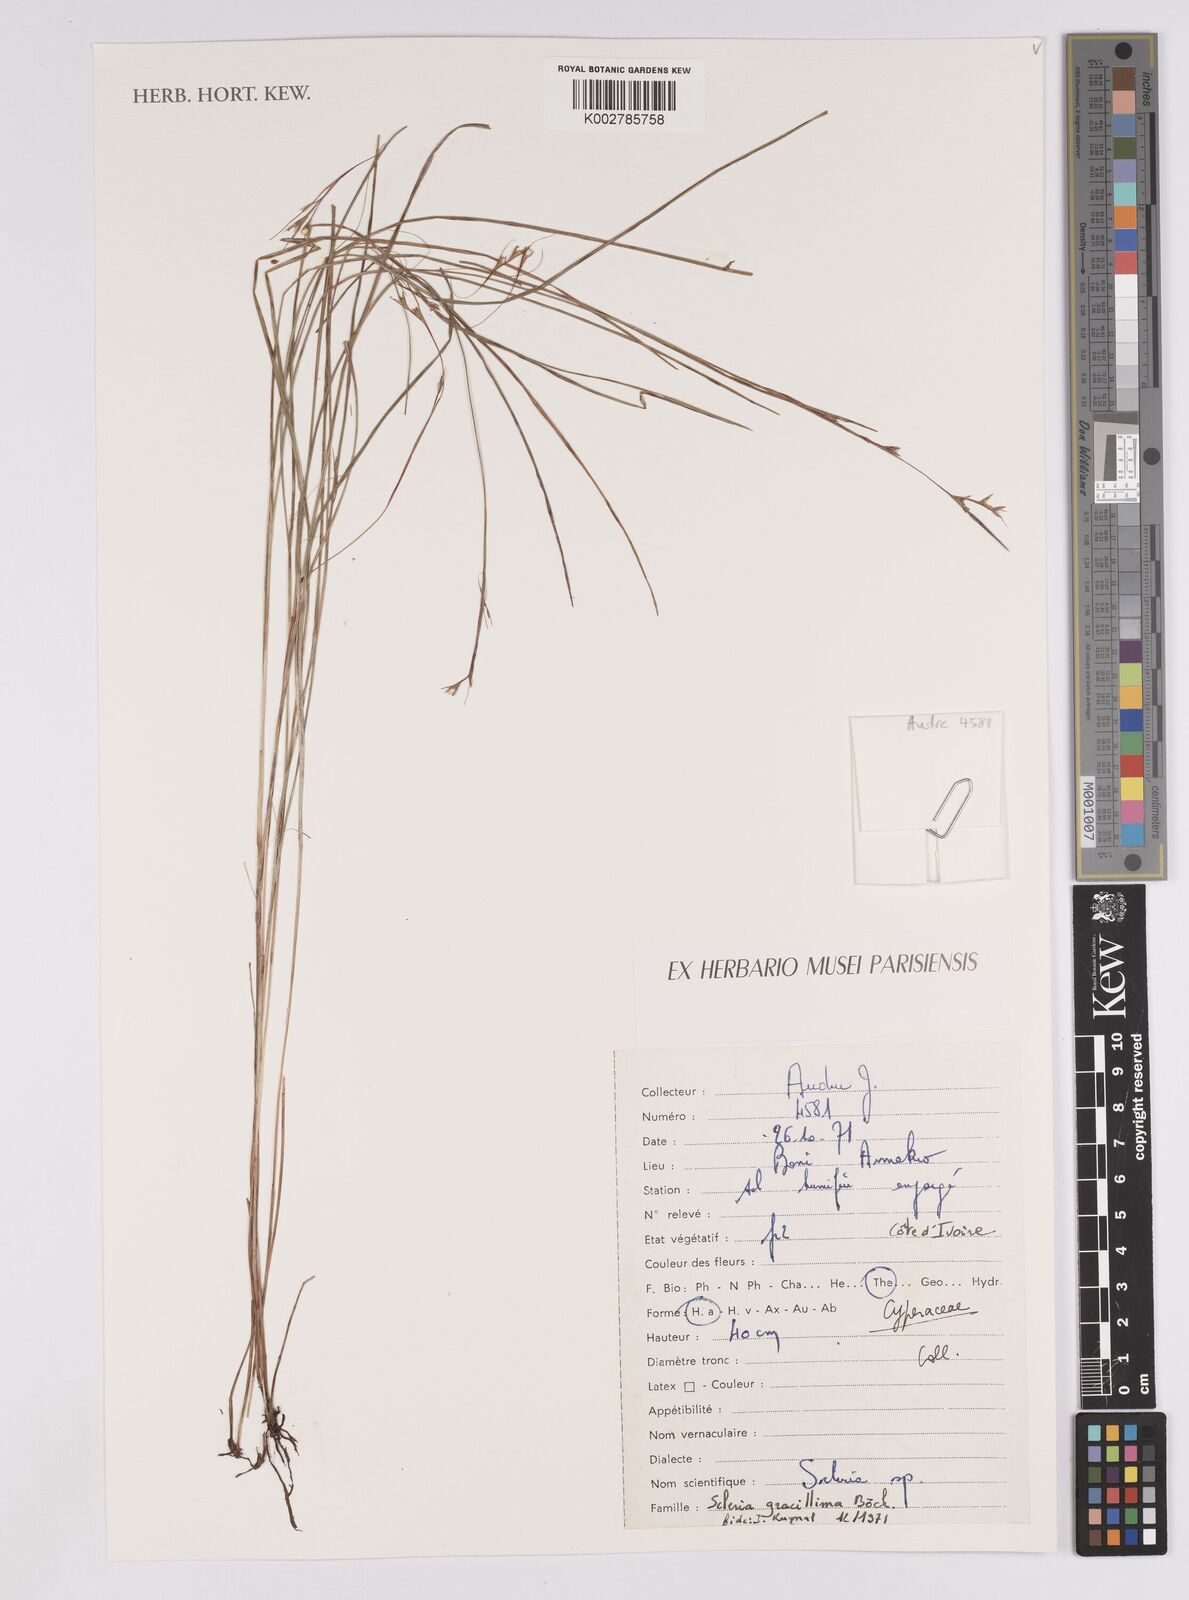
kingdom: Plantae
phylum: Tracheophyta
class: Liliopsida
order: Poales
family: Cyperaceae
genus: Scleria
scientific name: Scleria gracillima
